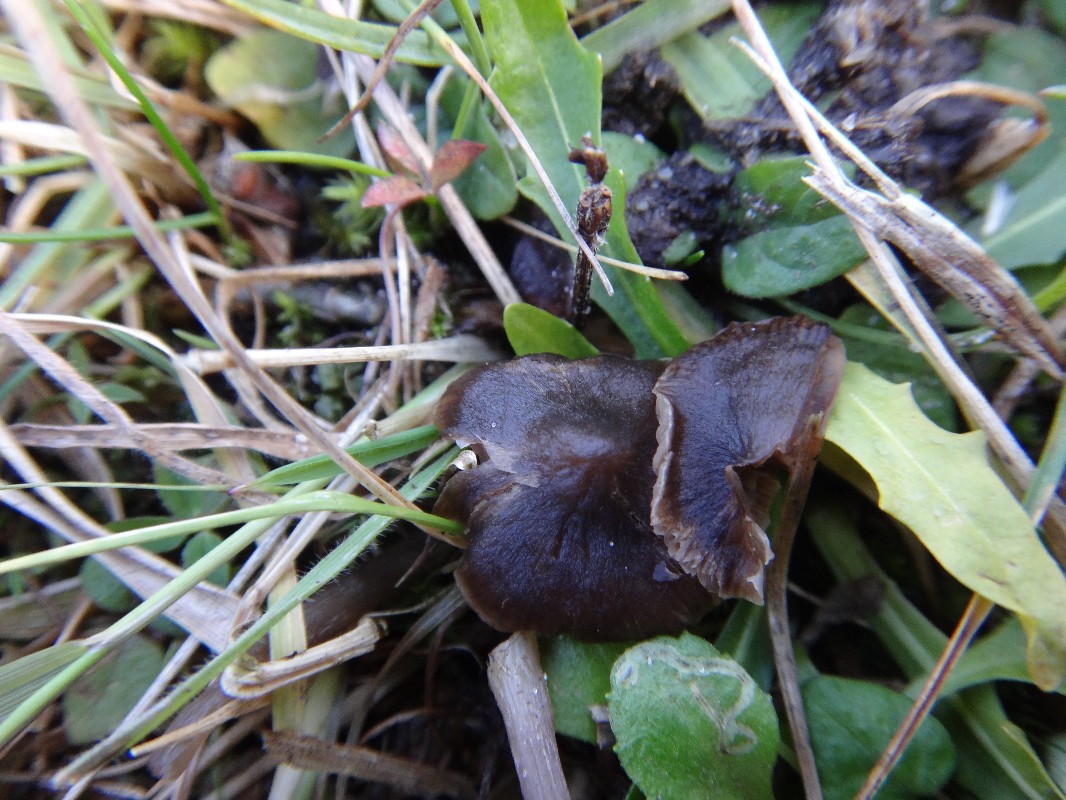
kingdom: Fungi
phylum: Basidiomycota
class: Agaricomycetes
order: Agaricales
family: Entolomataceae
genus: Entoloma
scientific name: Entoloma sericeum
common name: silkeglinsende rødblad
